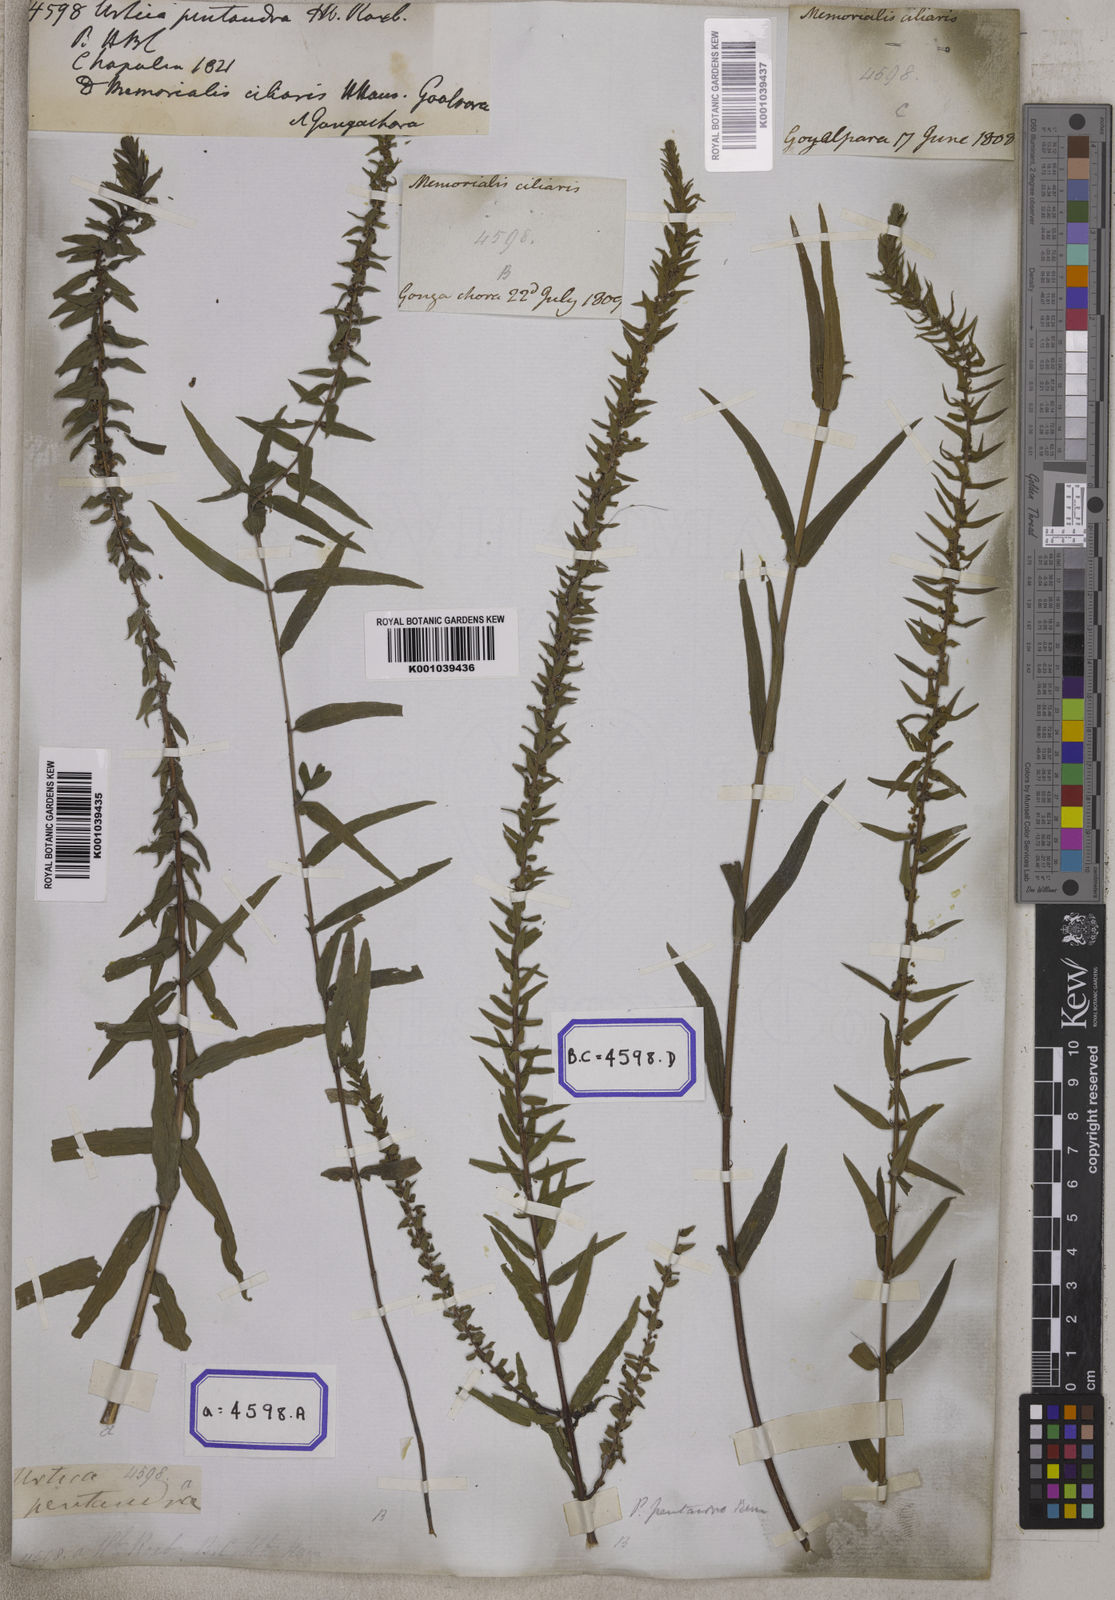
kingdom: Plantae
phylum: Tracheophyta
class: Magnoliopsida
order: Rosales
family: Urticaceae
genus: Gonostegia
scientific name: Gonostegia pentandra
